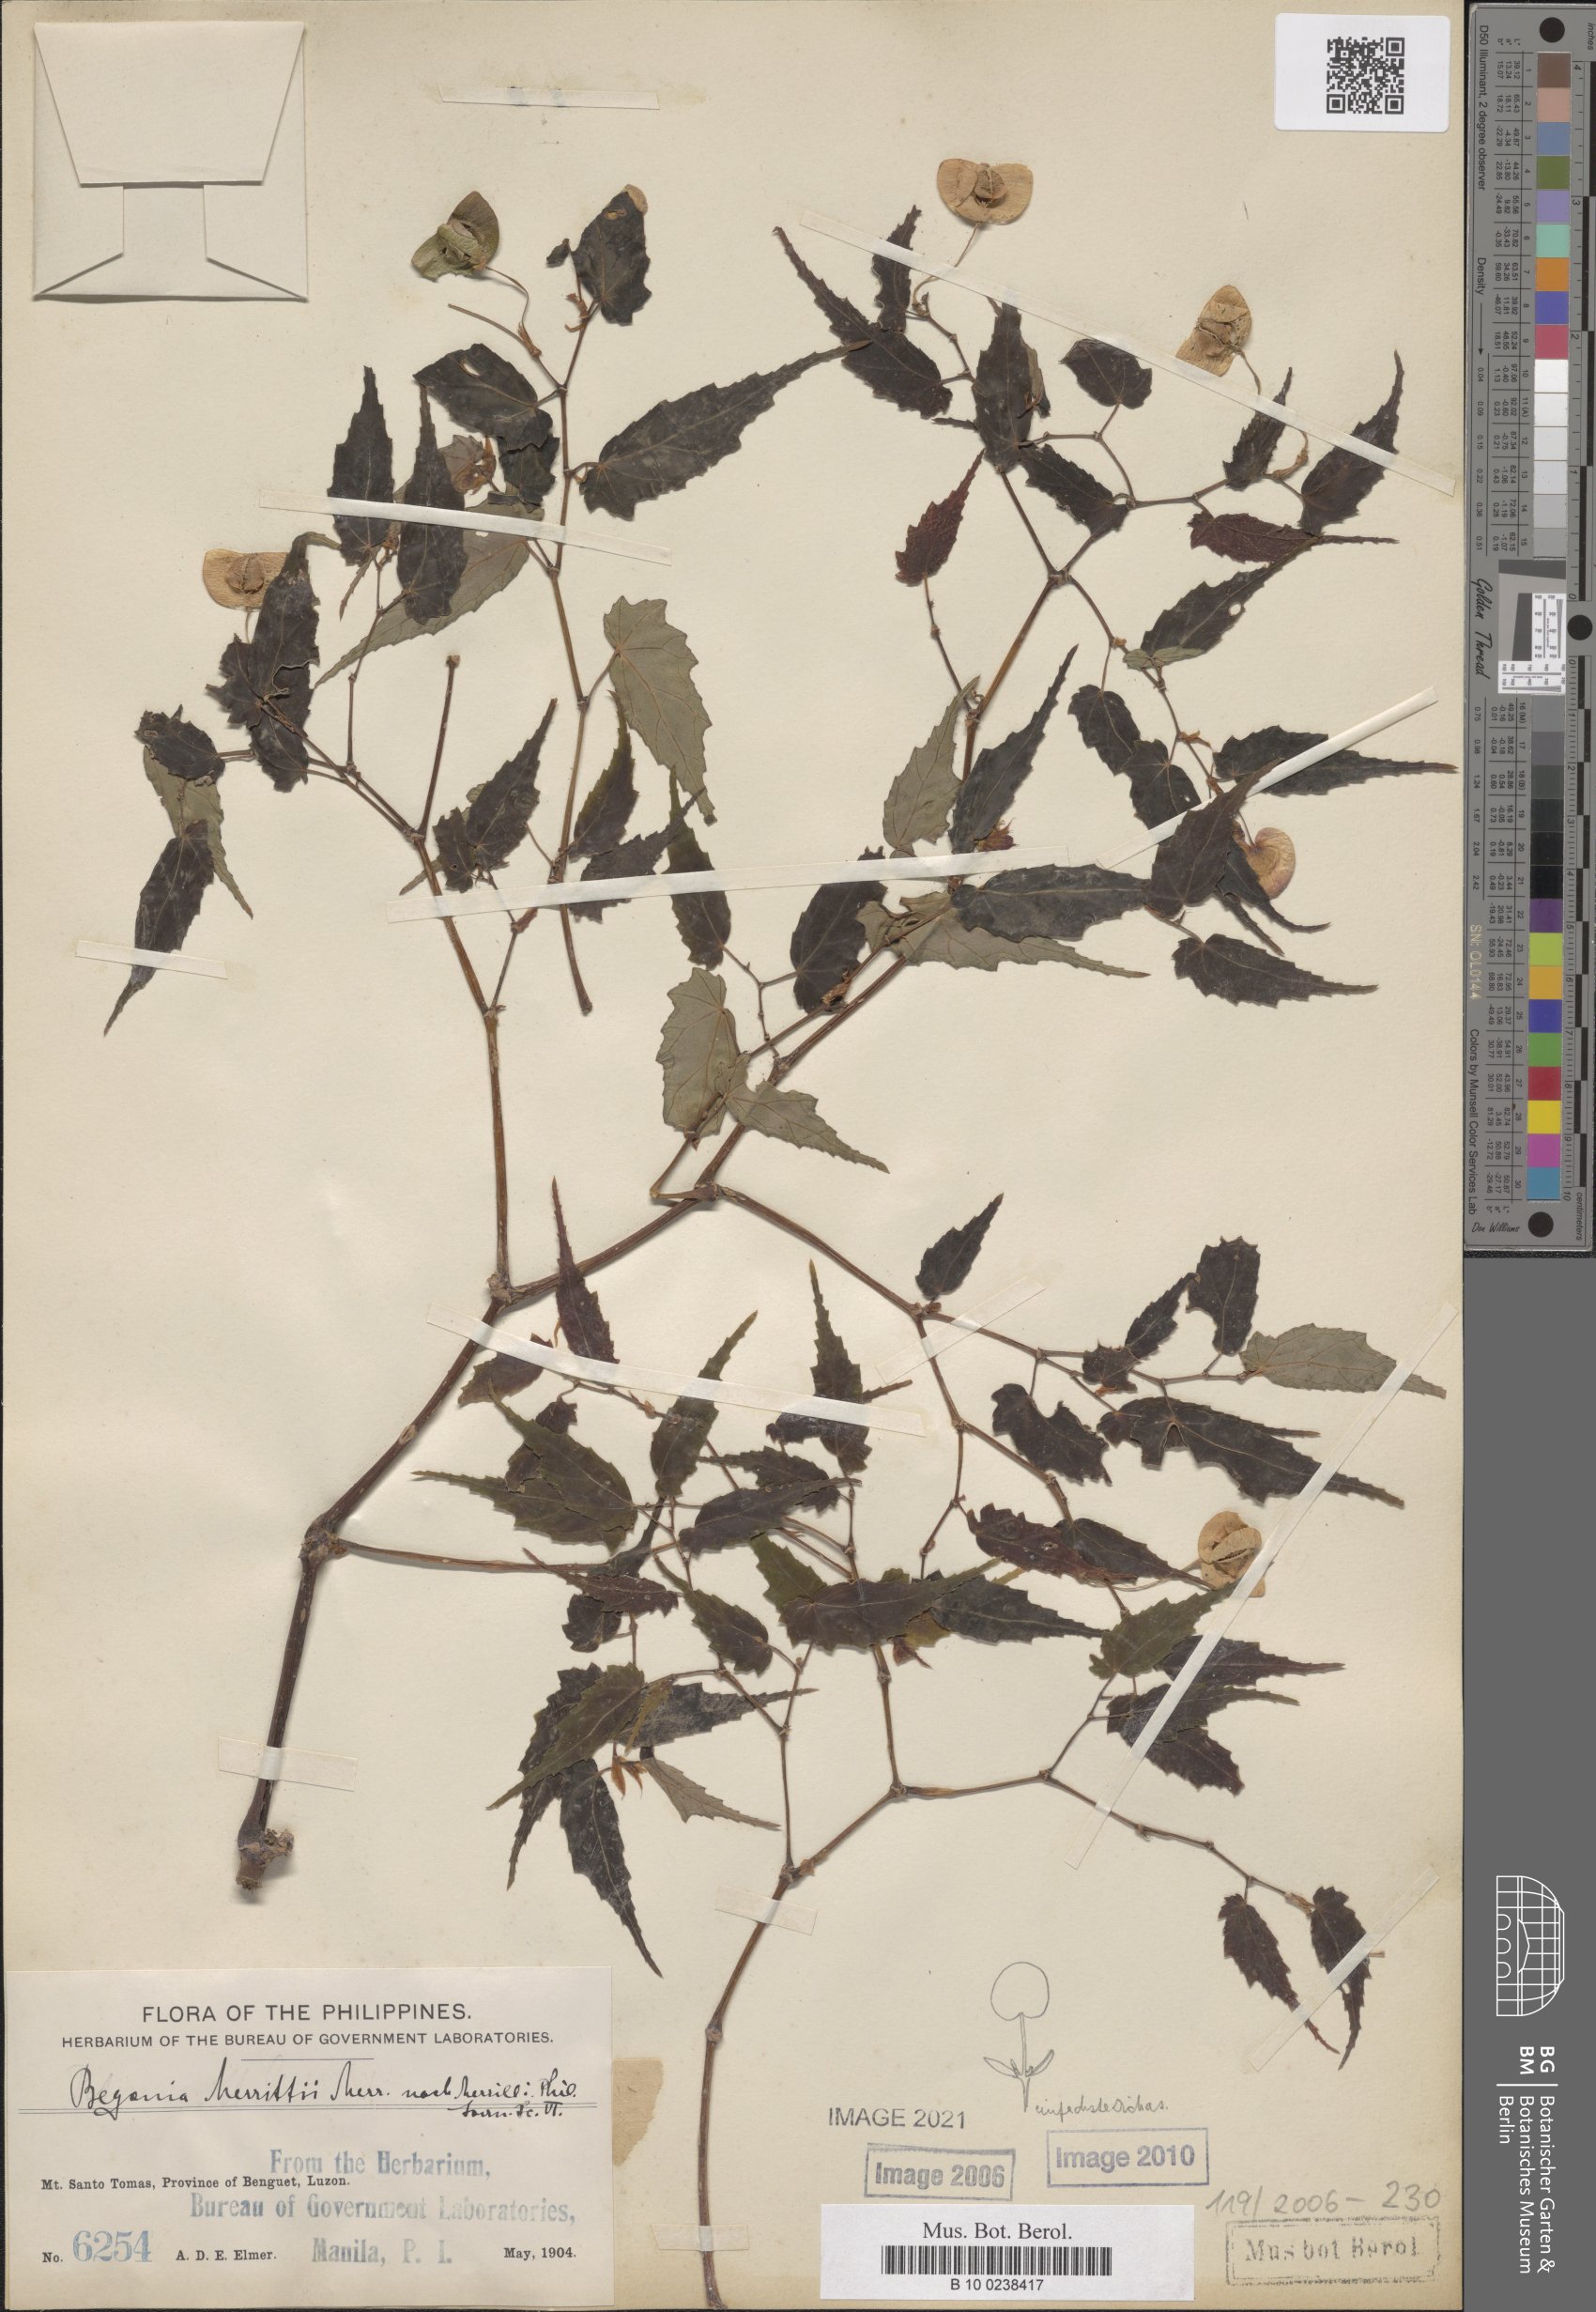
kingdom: Plantae
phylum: Tracheophyta
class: Magnoliopsida
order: Cucurbitales
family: Begoniaceae
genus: Begonia
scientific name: Begonia merrittii
